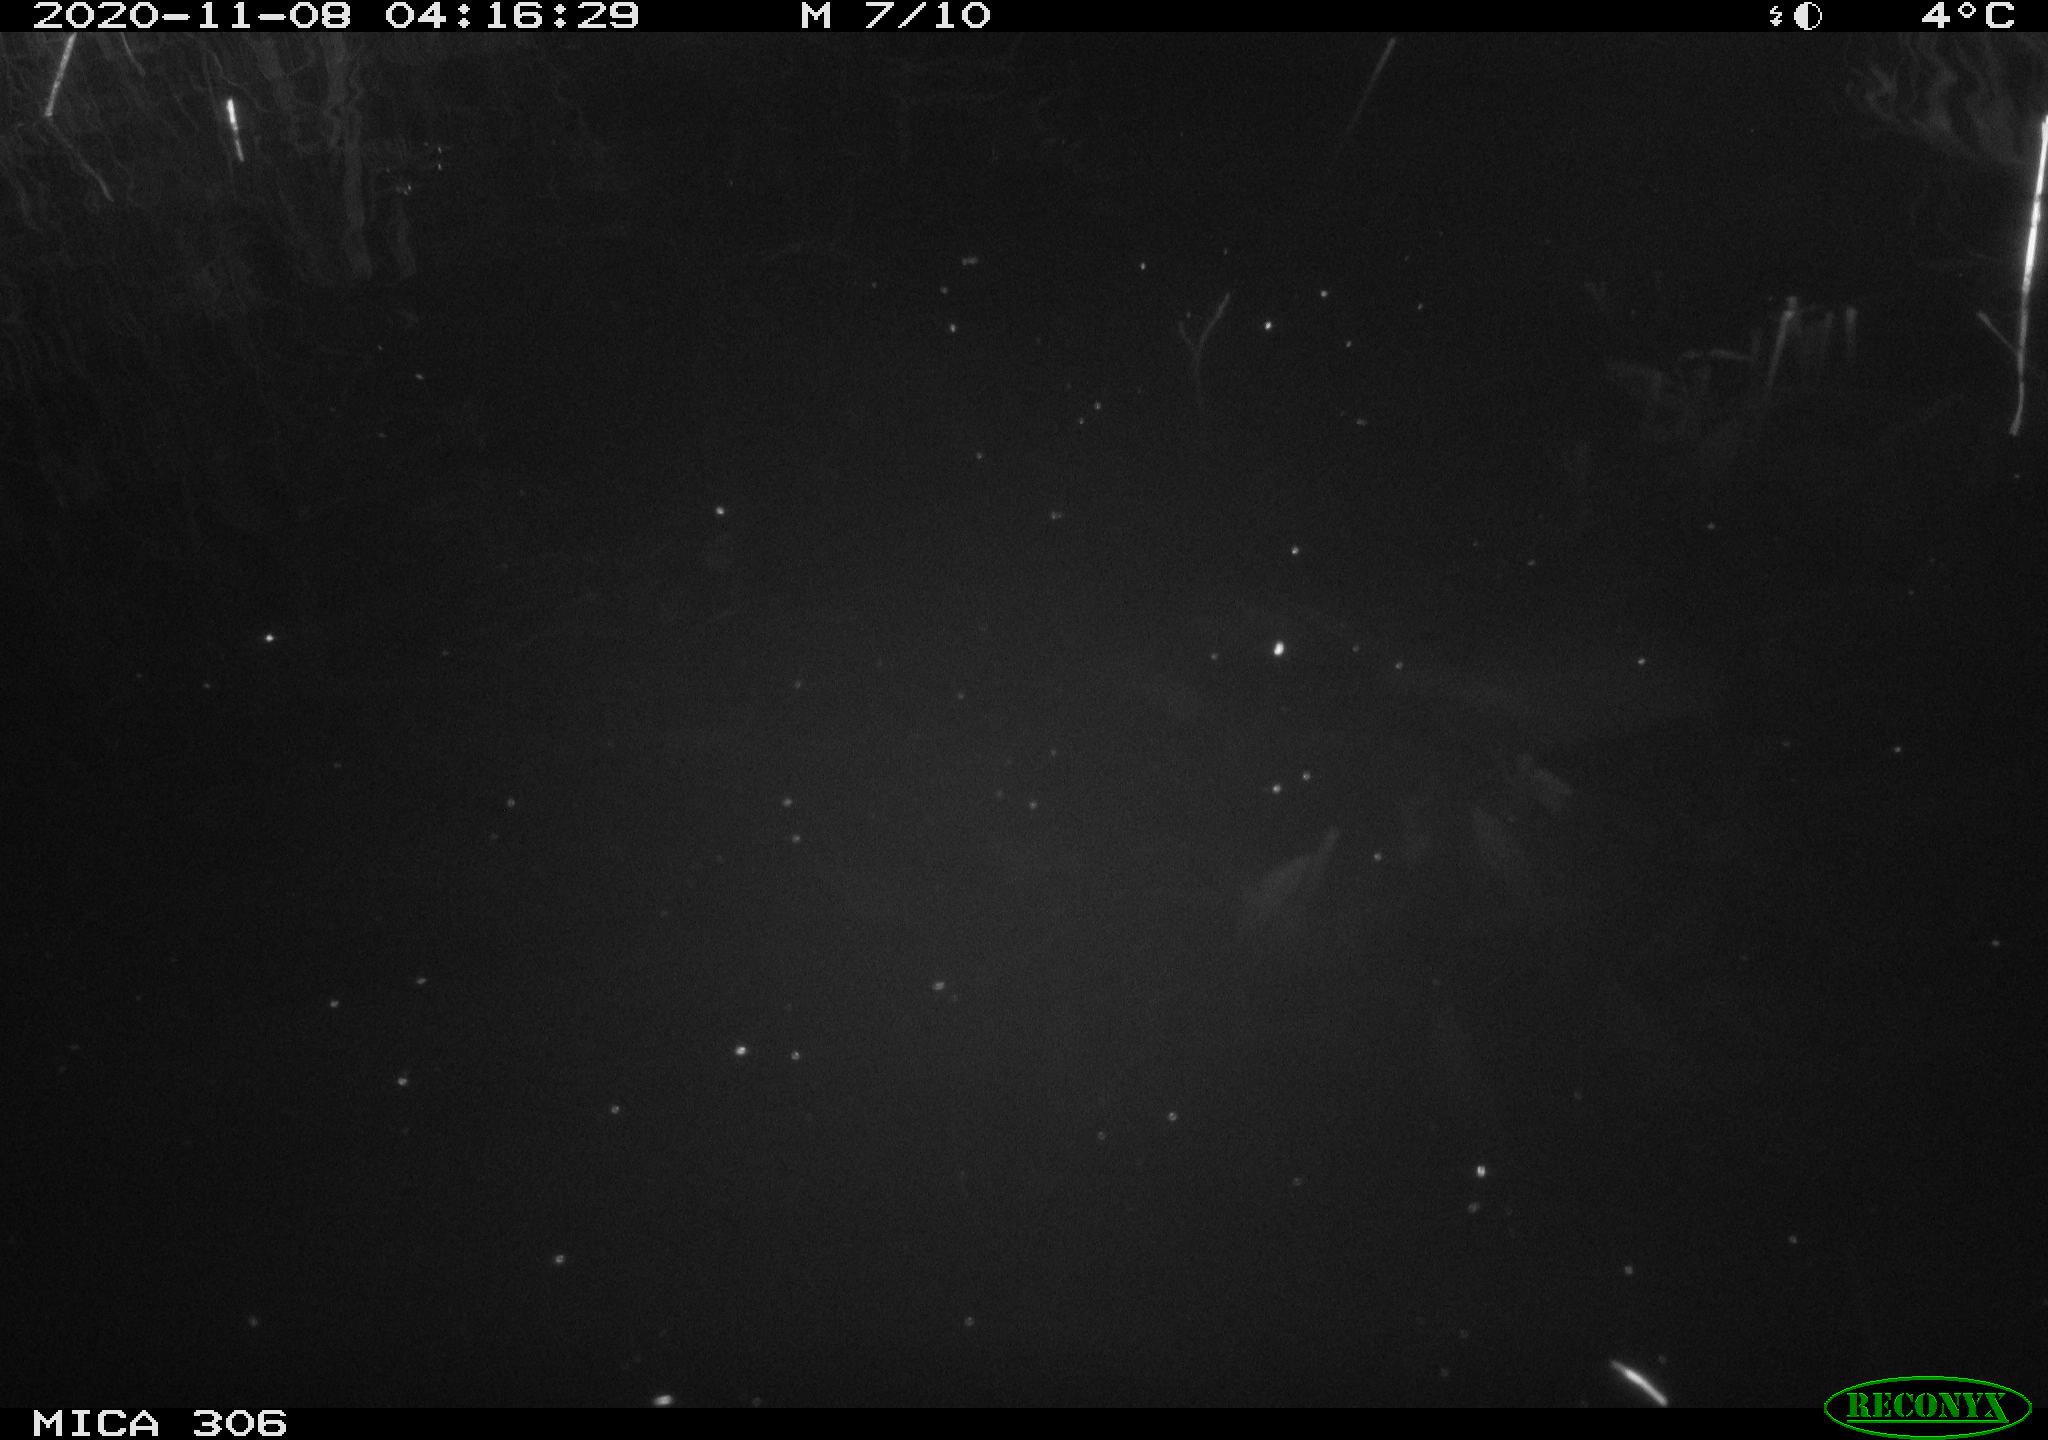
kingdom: Animalia
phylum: Chordata
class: Mammalia
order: Rodentia
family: Cricetidae
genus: Ondatra
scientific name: Ondatra zibethicus
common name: Muskrat
